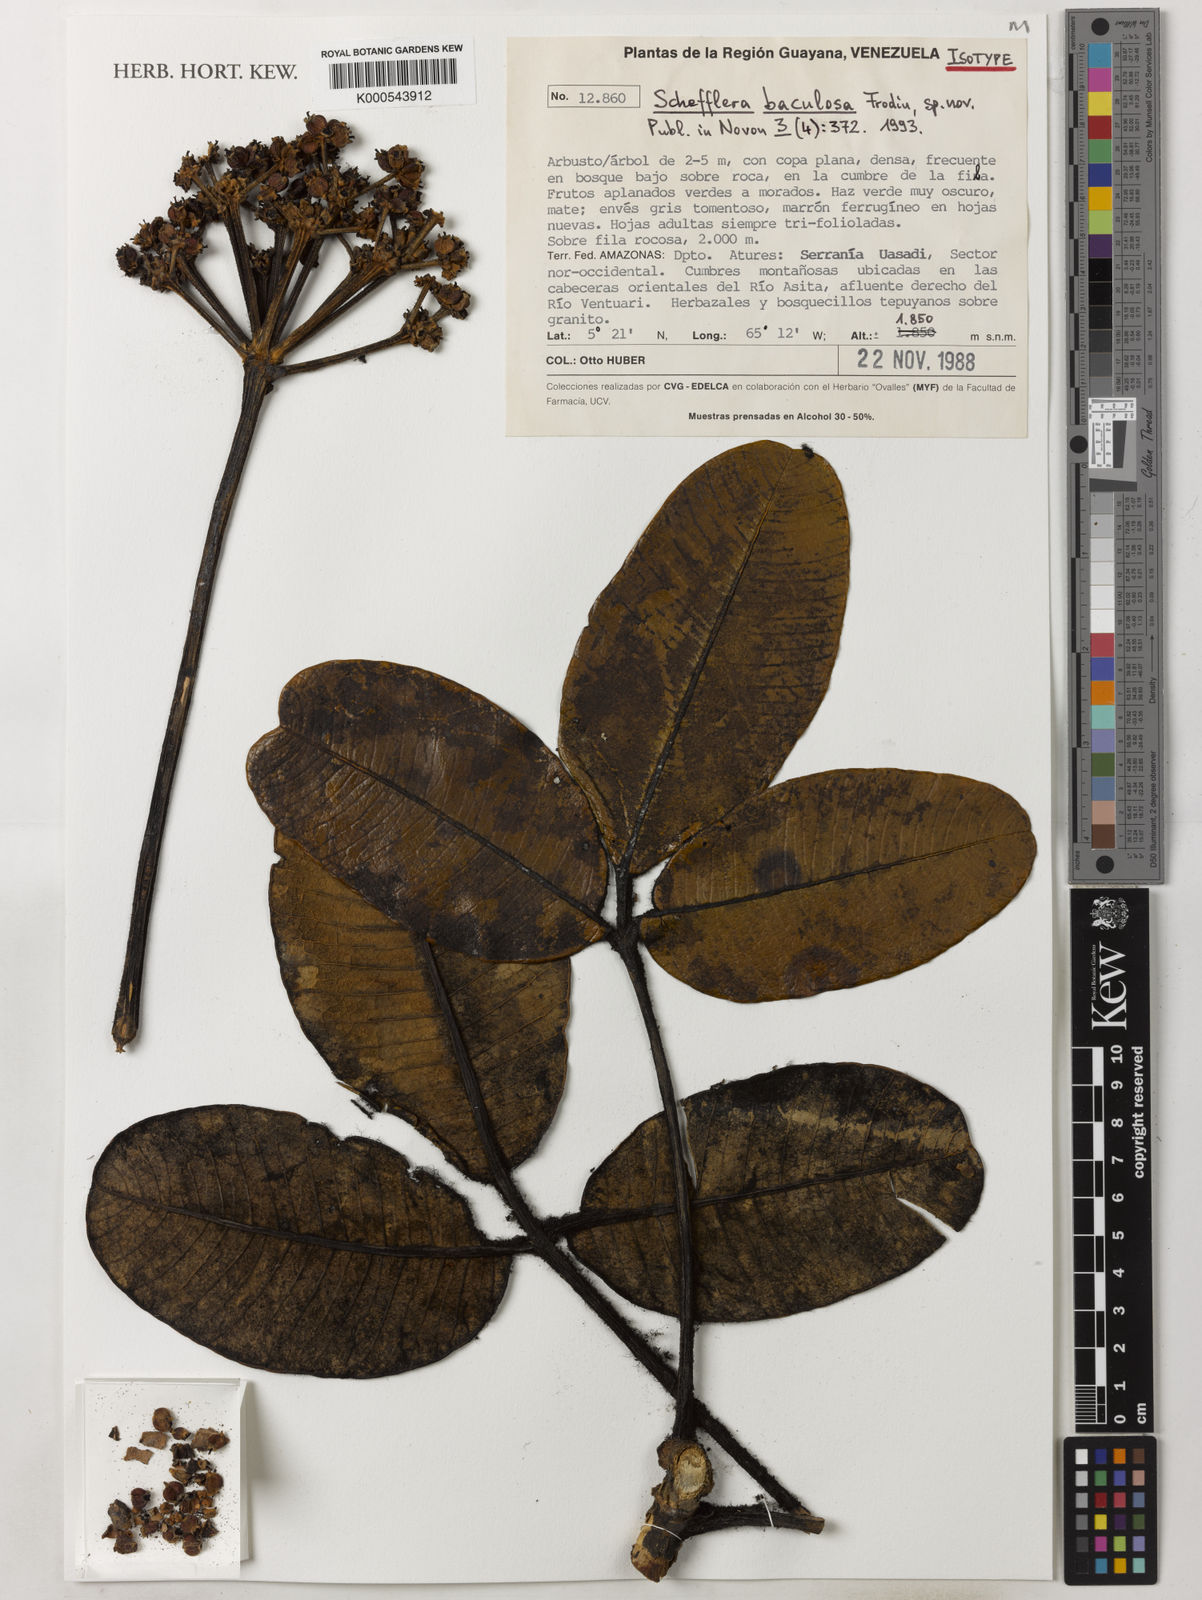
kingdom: Plantae
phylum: Tracheophyta
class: Magnoliopsida
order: Apiales
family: Araliaceae
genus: Crepinella
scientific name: Crepinella baculosa
